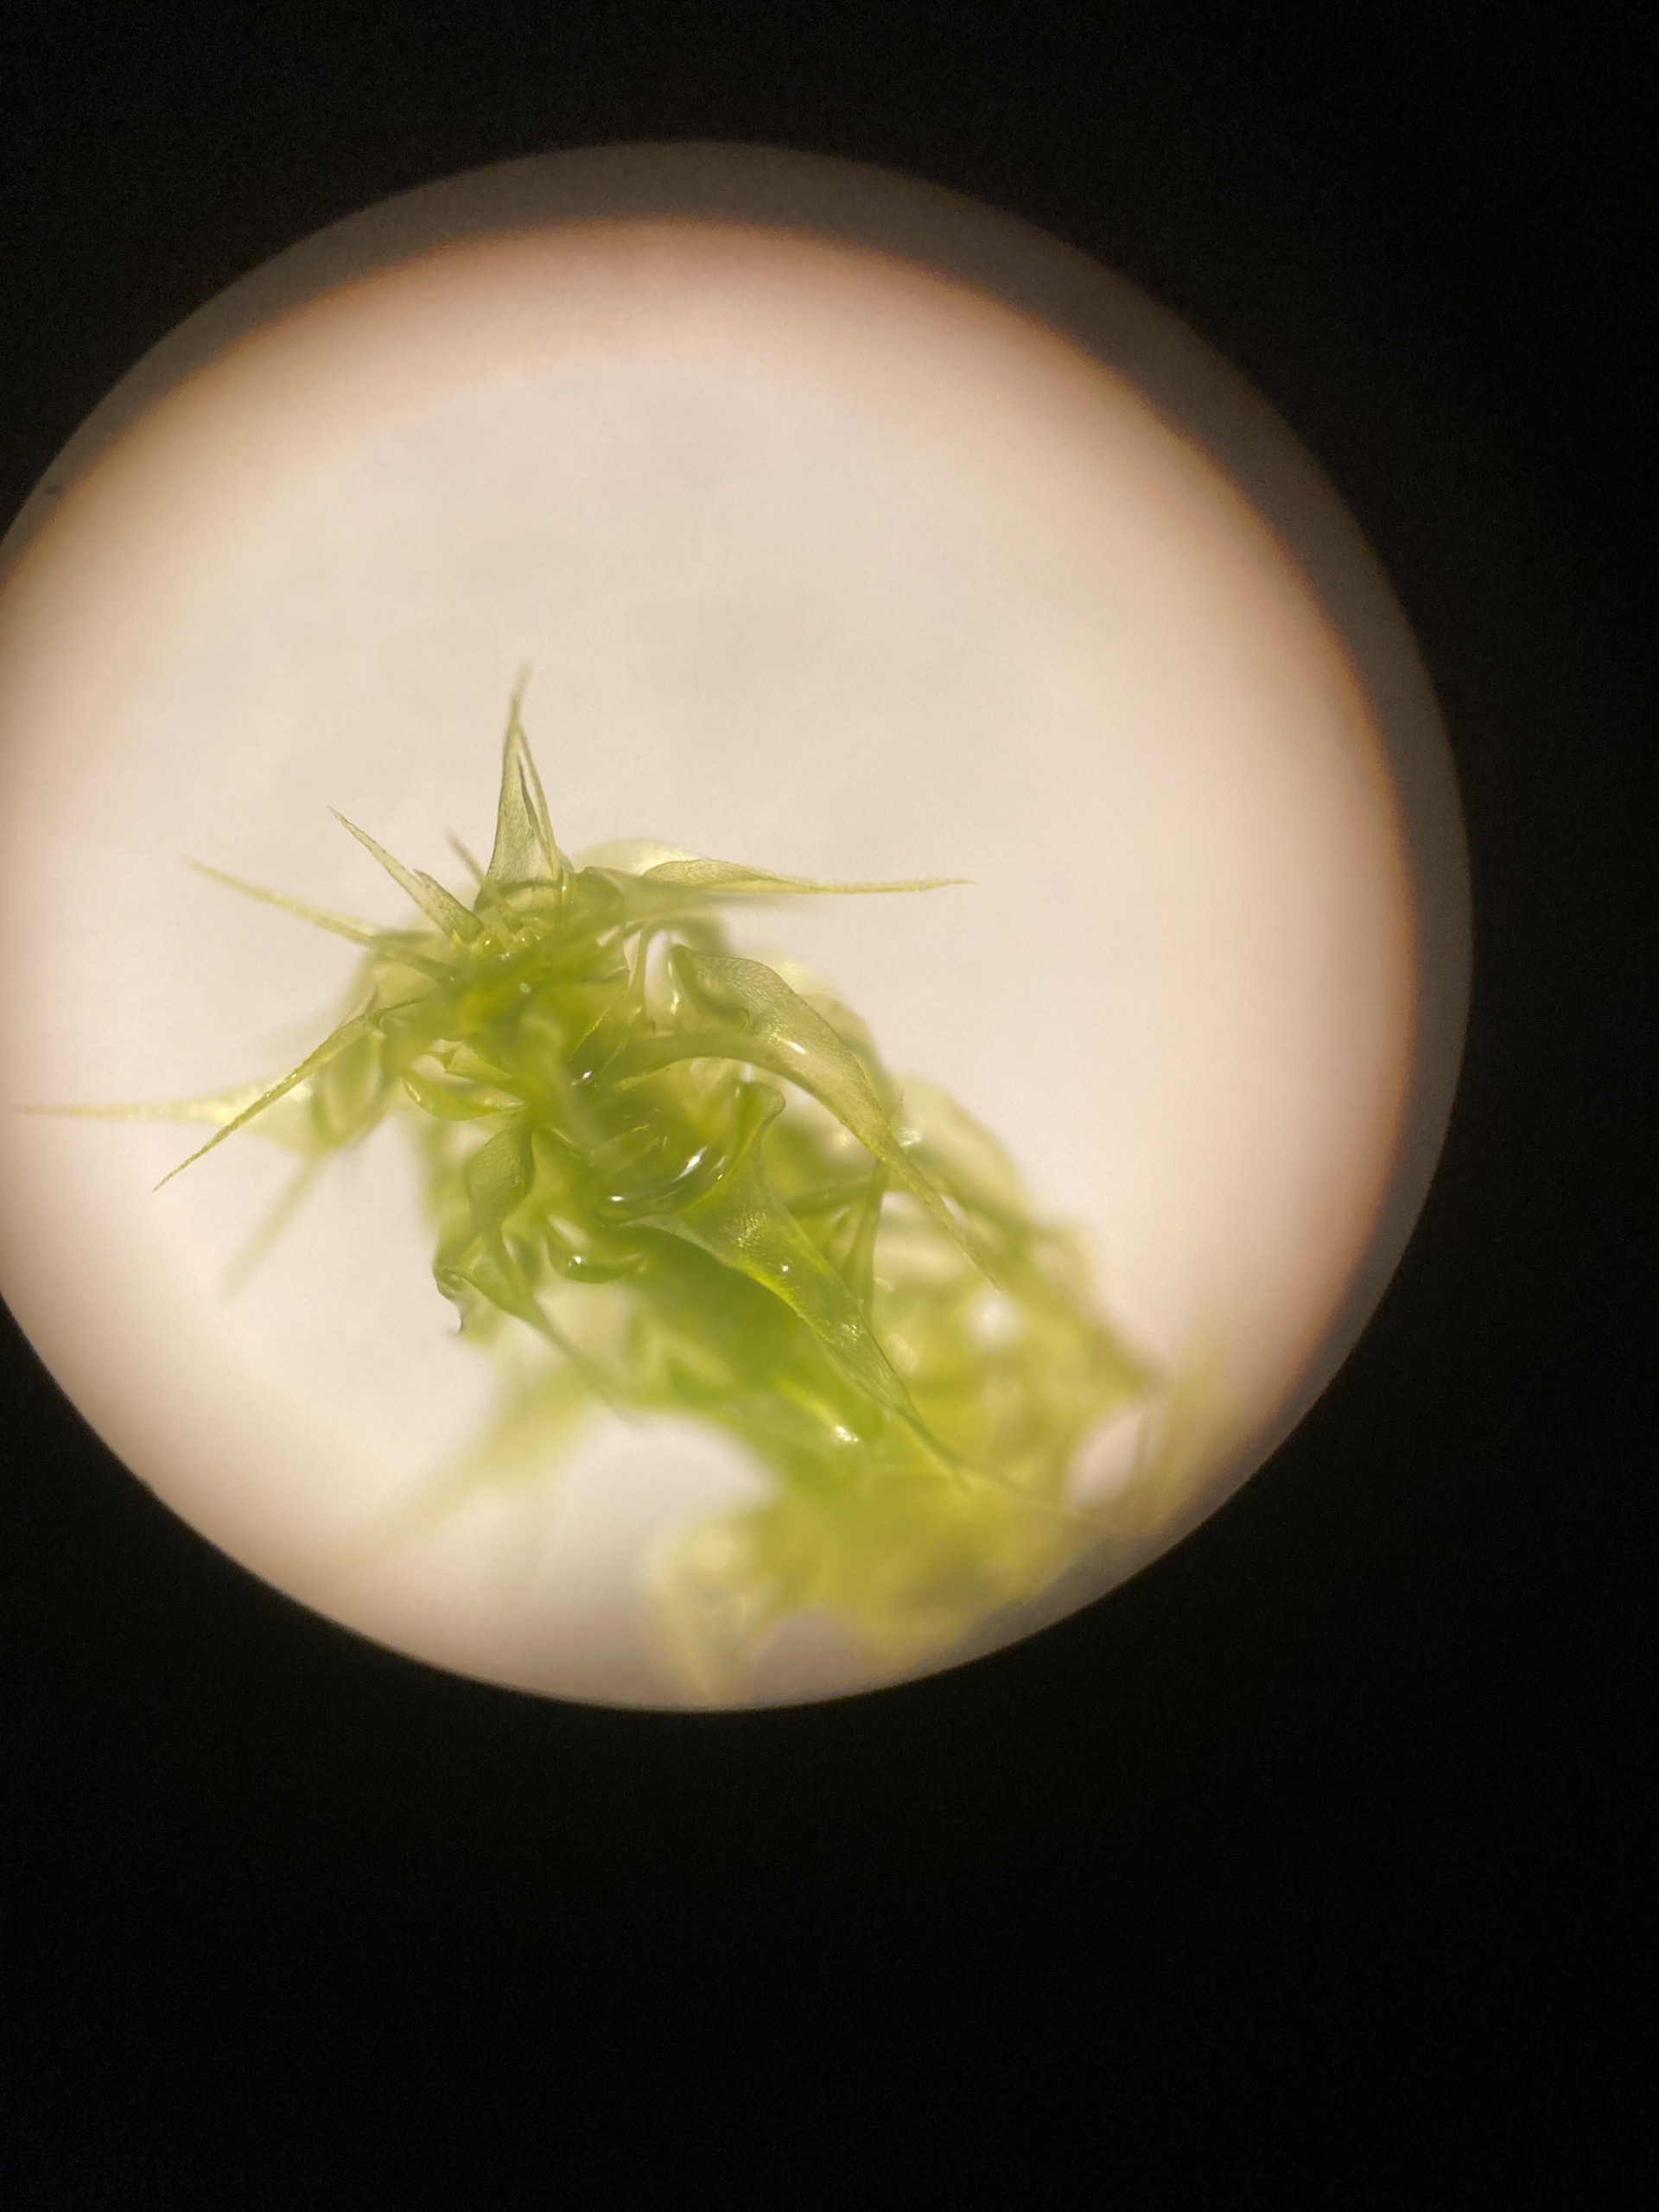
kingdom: Plantae
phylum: Bryophyta
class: Bryopsida
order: Hypnales
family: Hylocomiaceae
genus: Rhytidiadelphus
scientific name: Rhytidiadelphus squarrosus
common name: Plæne-kransemos
